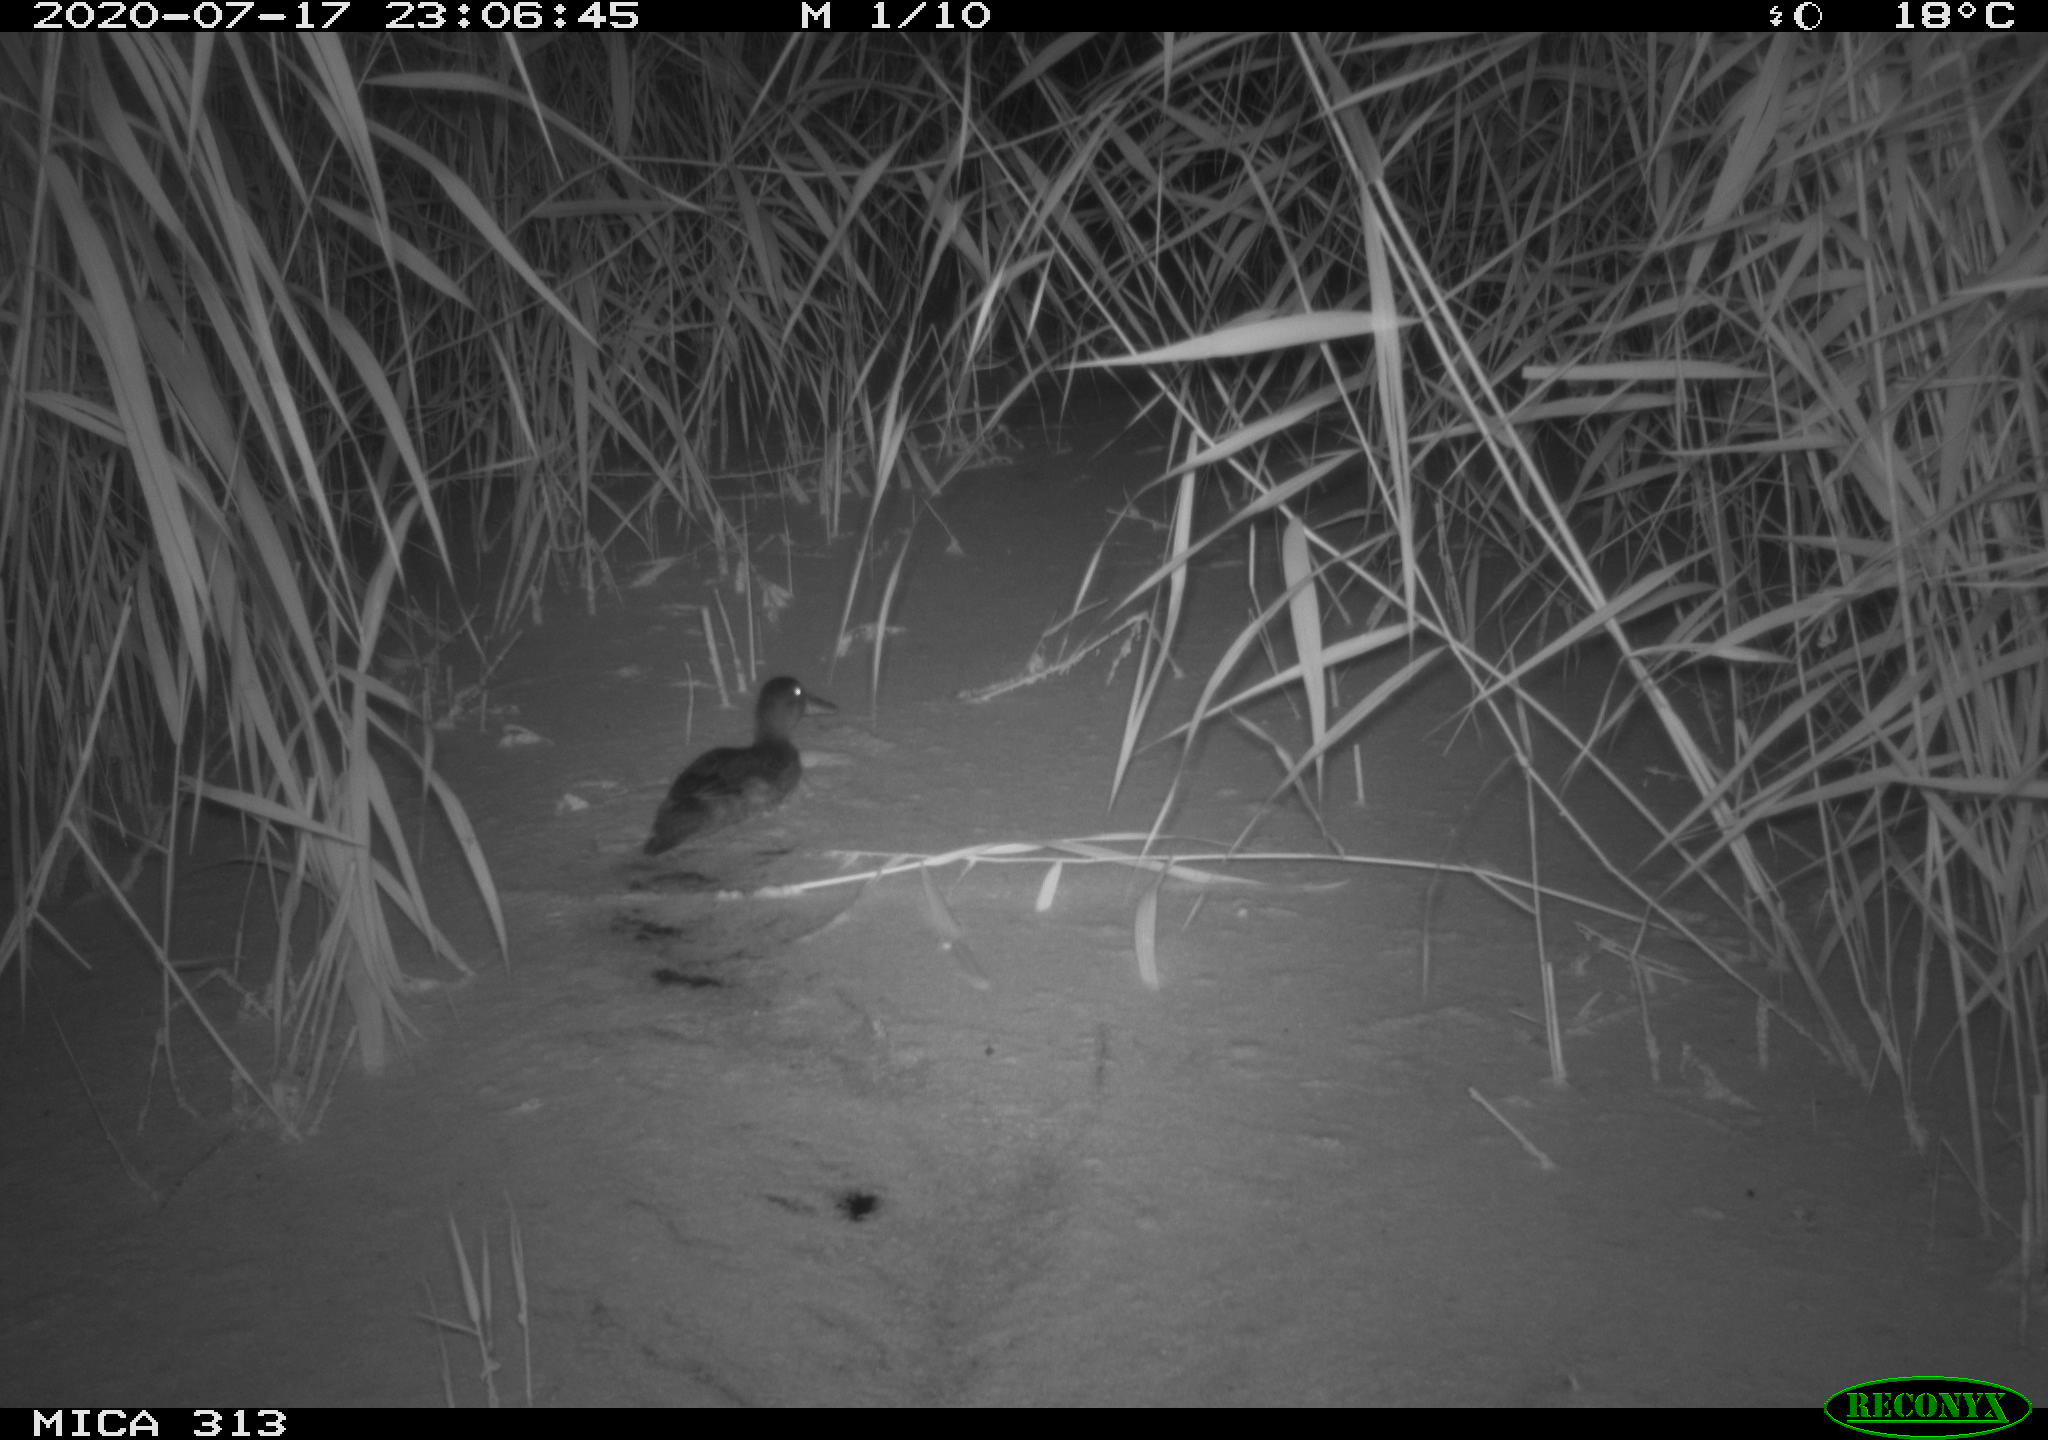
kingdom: Animalia
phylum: Chordata
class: Aves
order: Gruiformes
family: Rallidae
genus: Gallinula
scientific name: Gallinula chloropus
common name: Common moorhen
